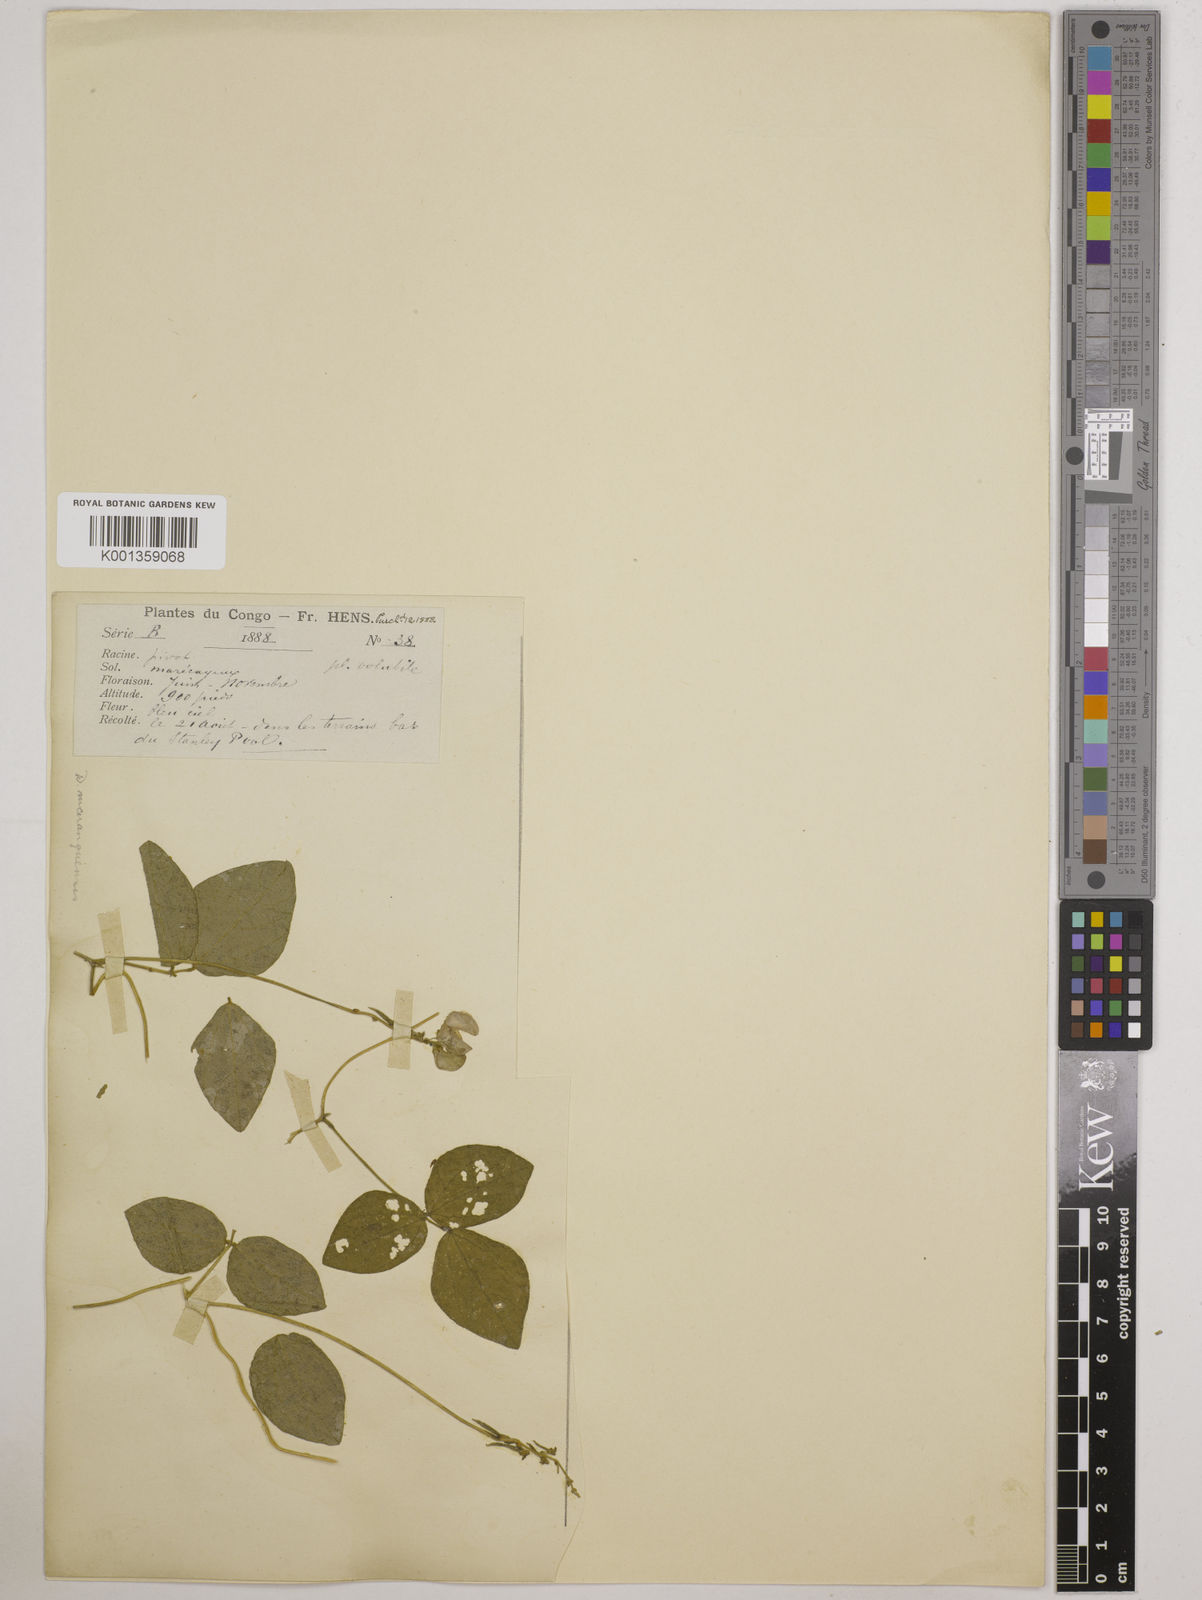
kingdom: Plantae
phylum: Tracheophyta
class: Magnoliopsida
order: Fabales
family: Fabaceae
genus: Vigna
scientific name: Vigna gracilis
